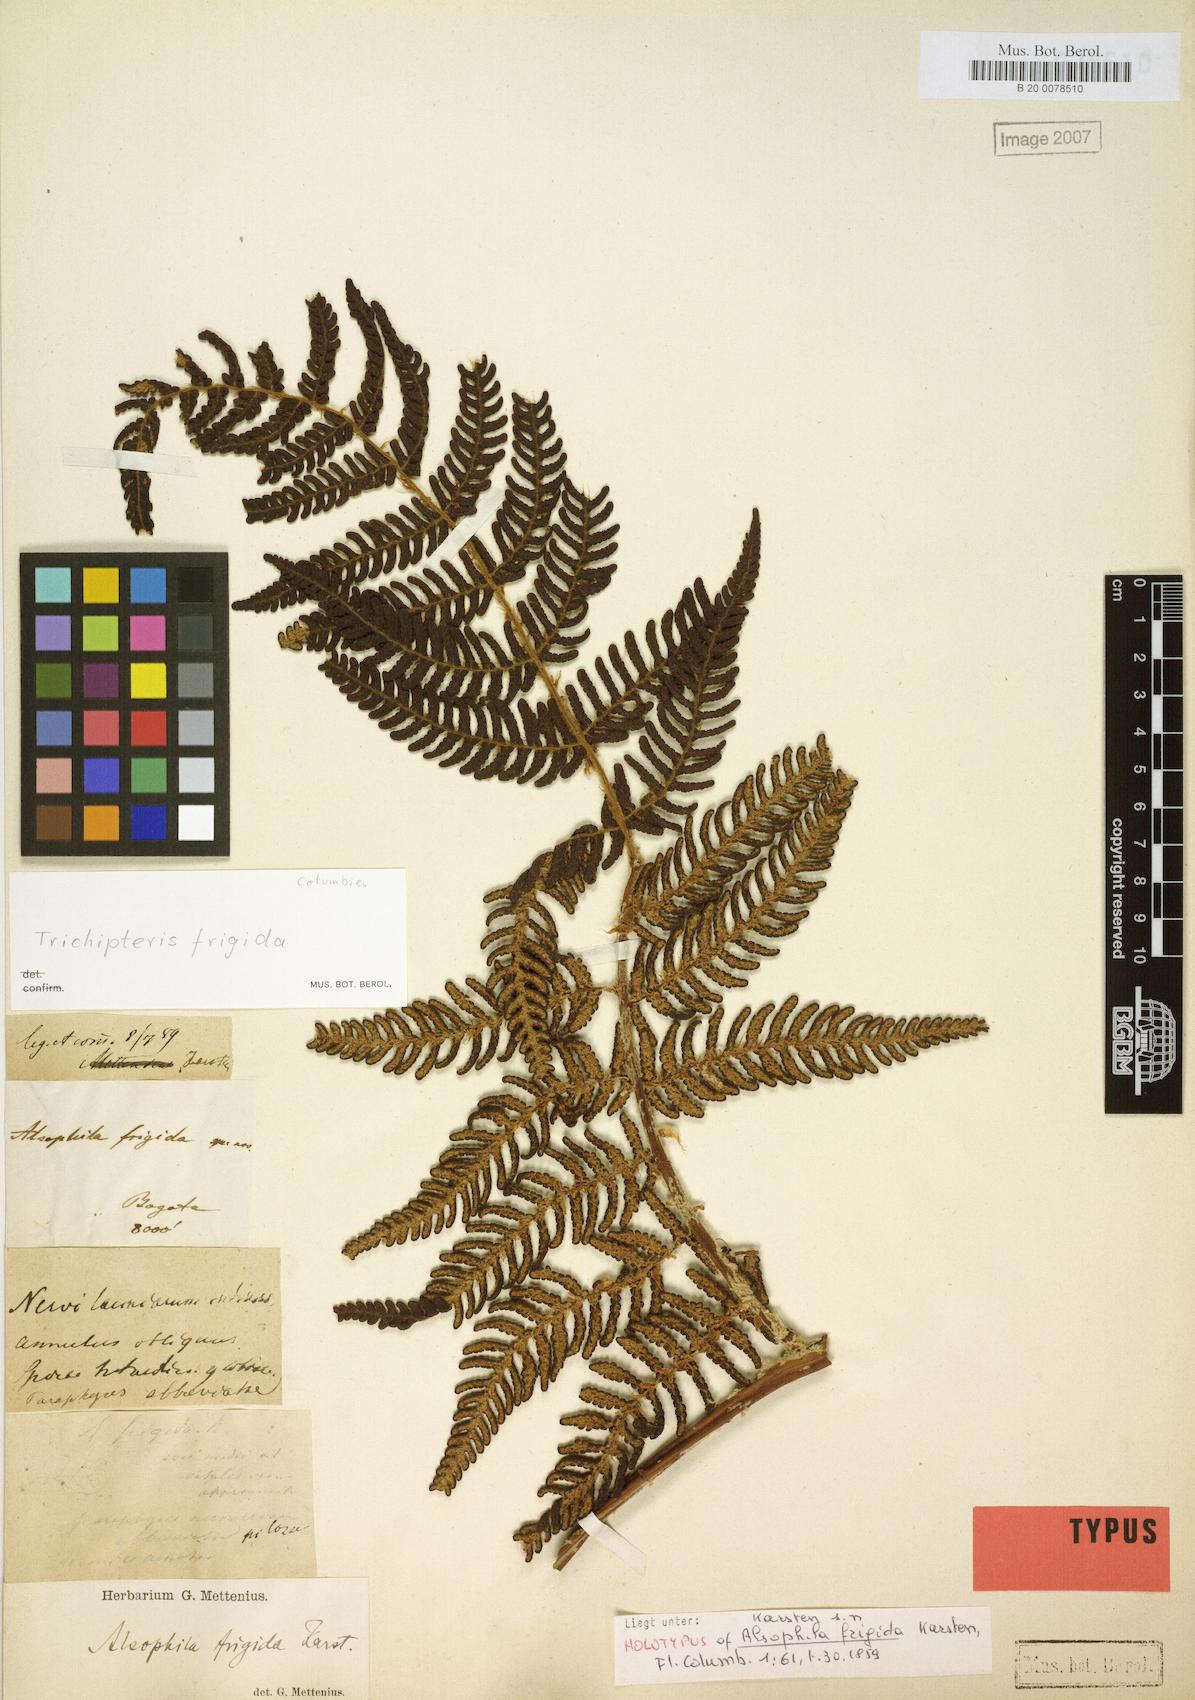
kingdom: Plantae
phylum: Tracheophyta
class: Polypodiopsida
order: Cyatheales
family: Cyatheaceae
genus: Cyathea
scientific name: Cyathea frigida
